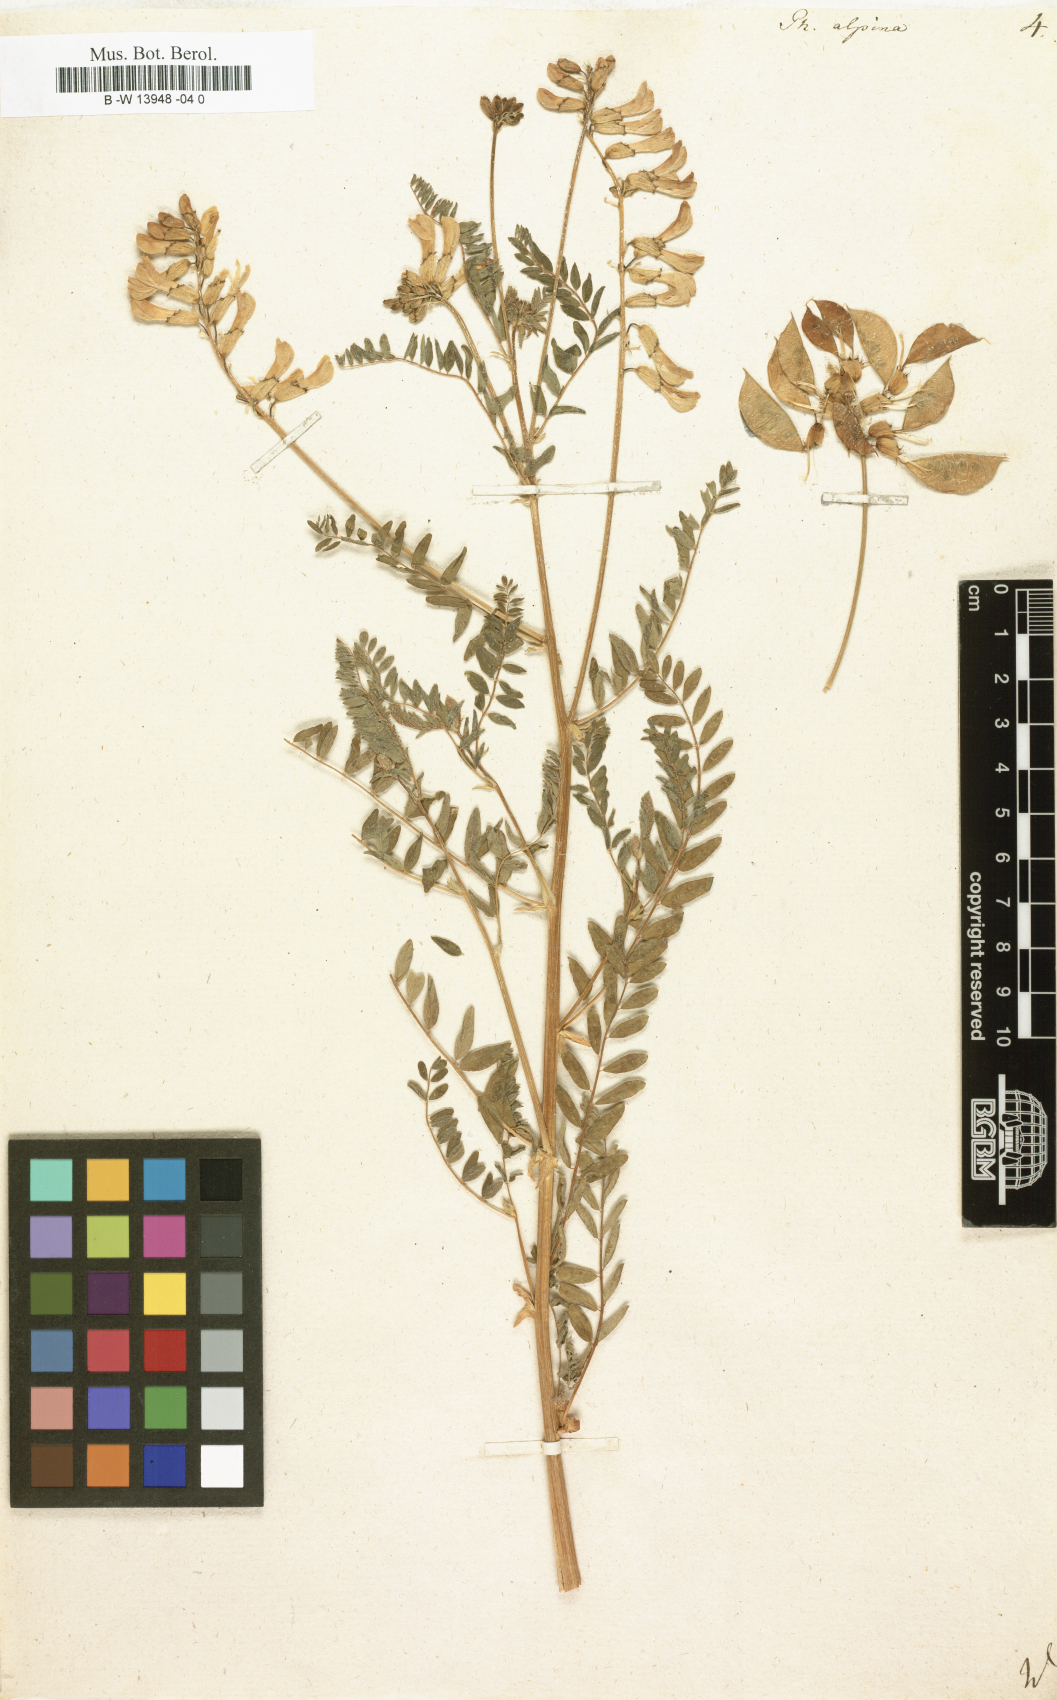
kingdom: Plantae
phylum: Tracheophyta
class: Magnoliopsida
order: Fabales
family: Fabaceae
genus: Astragalus
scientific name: Astragalus
